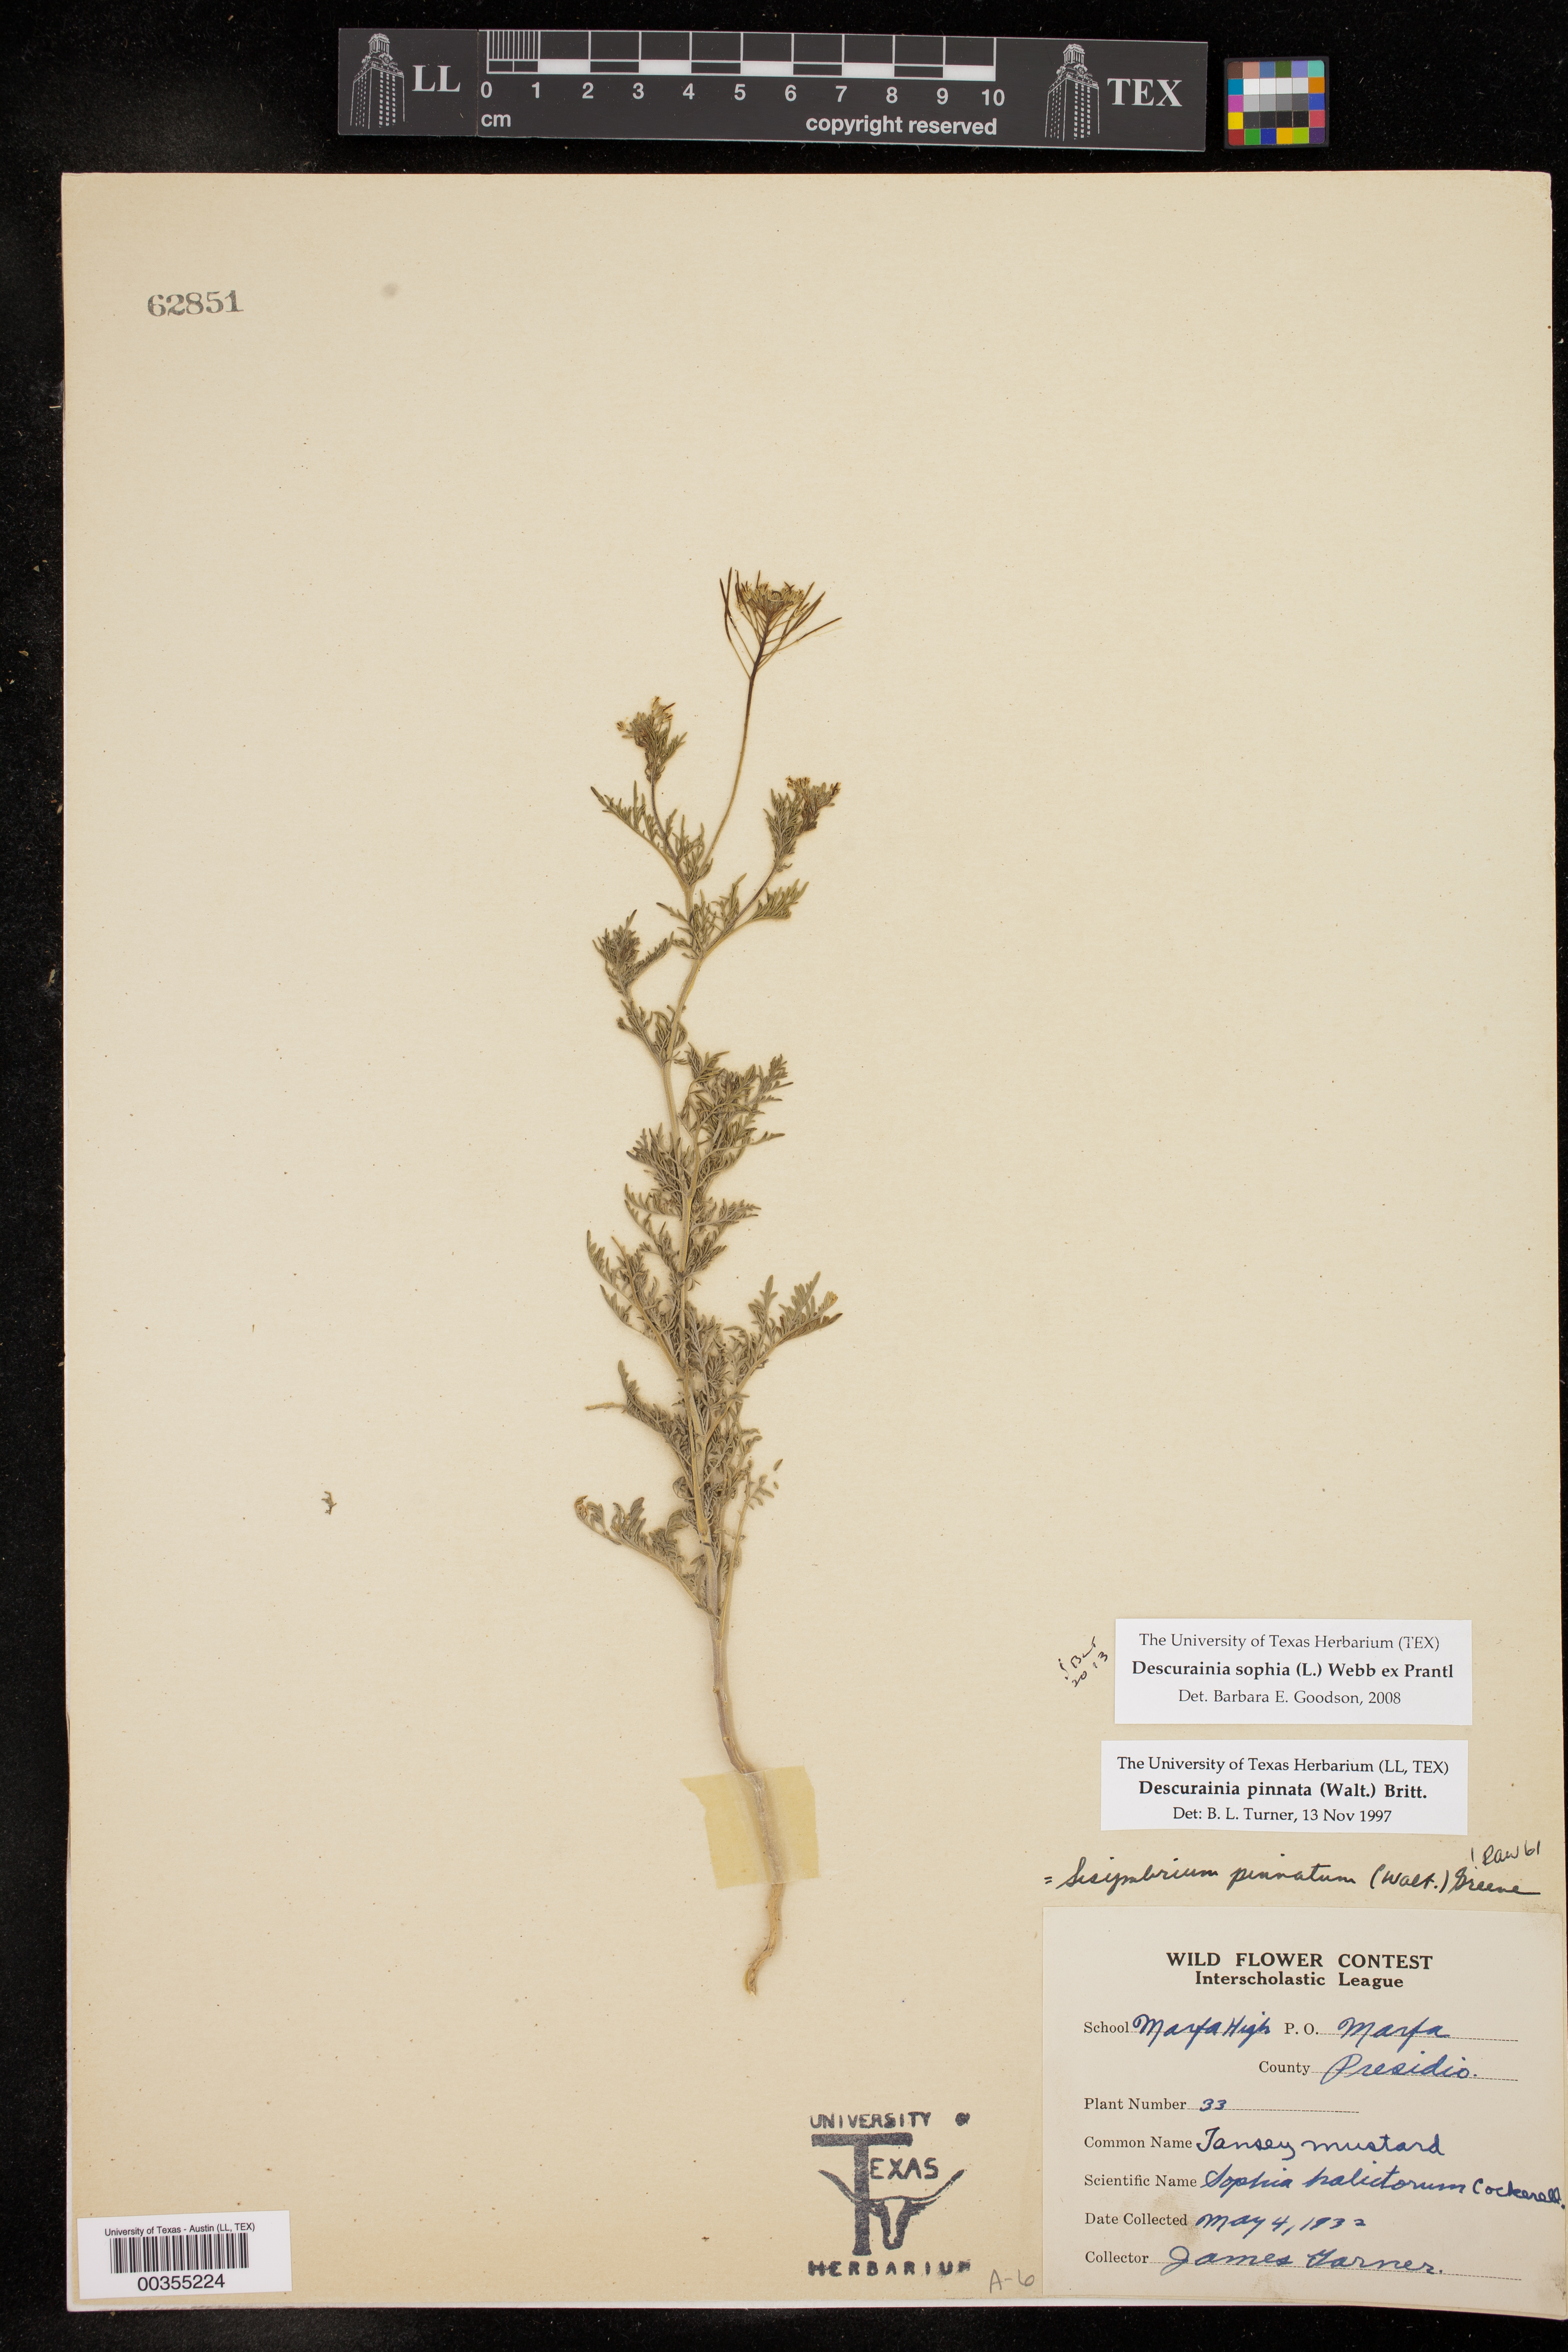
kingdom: Plantae
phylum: Tracheophyta
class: Magnoliopsida
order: Brassicales
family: Brassicaceae
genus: Descurainia
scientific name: Descurainia sophia
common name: Flixweed
